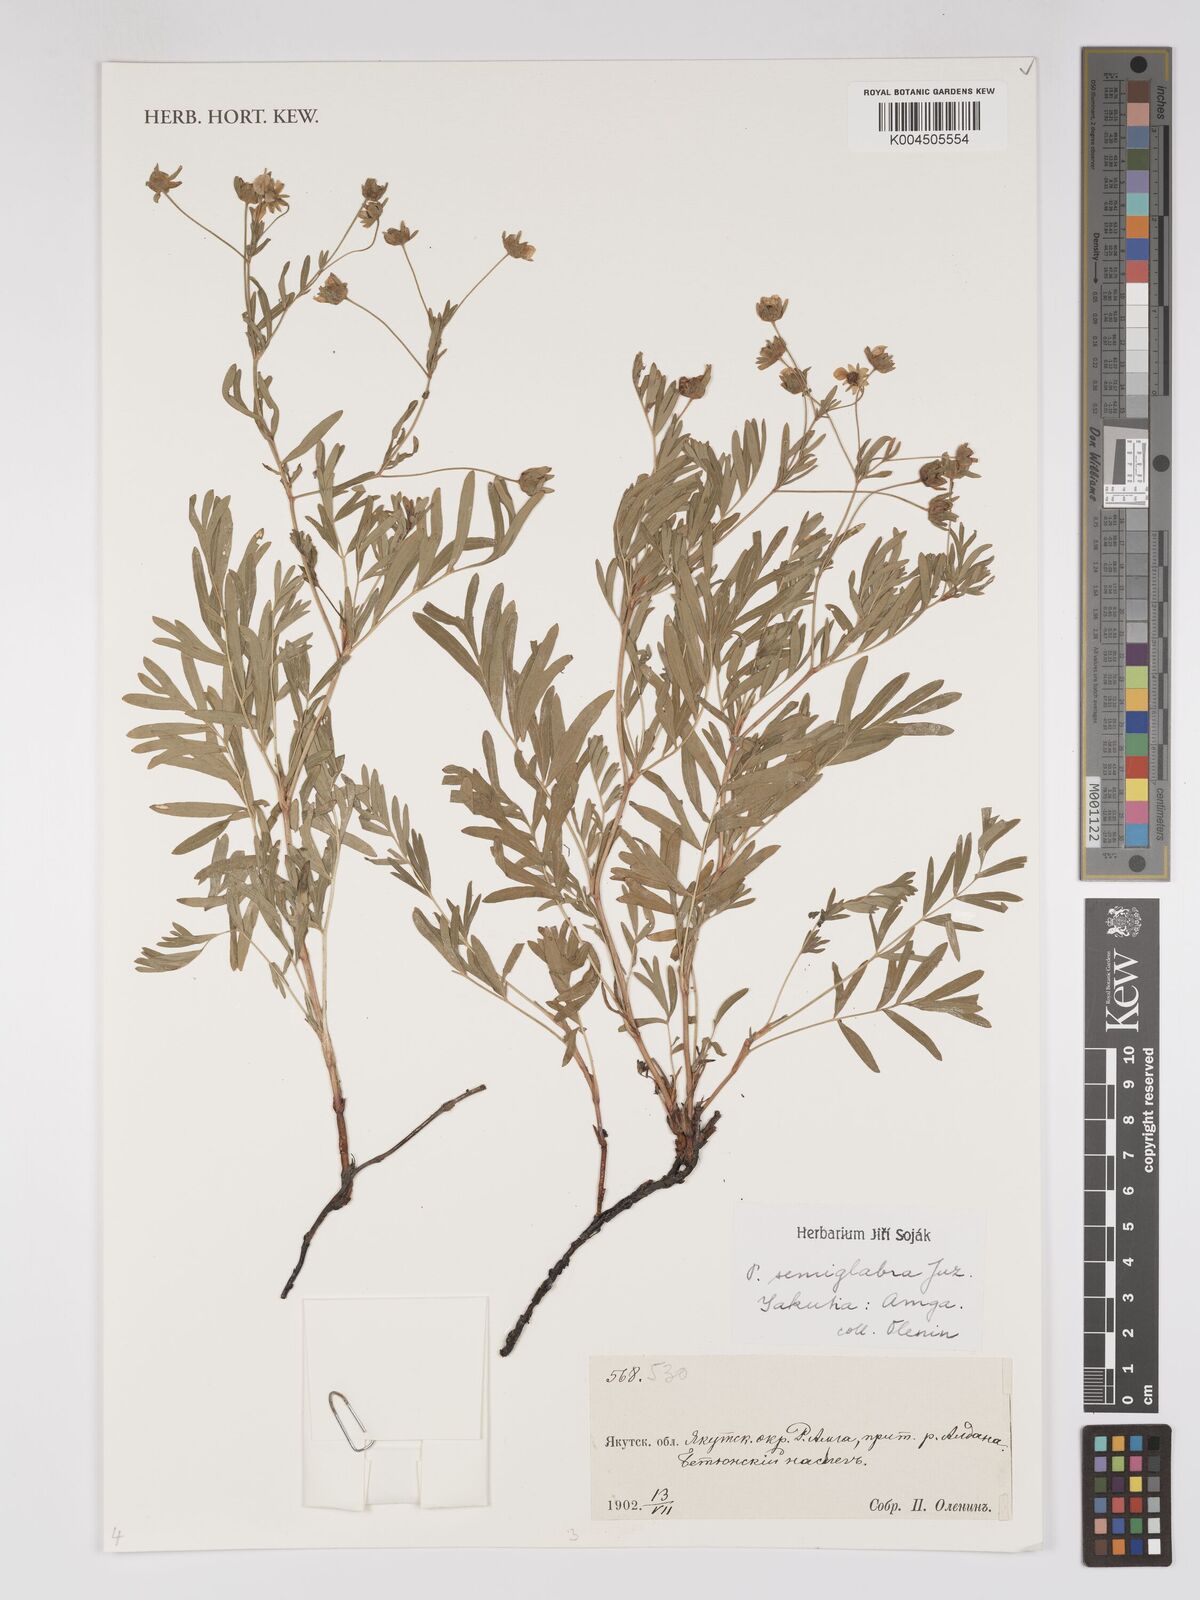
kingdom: Plantae
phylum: Tracheophyta
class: Magnoliopsida
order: Rosales
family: Rosaceae
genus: Sibbaldianthe
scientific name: Sibbaldianthe semiglabra
